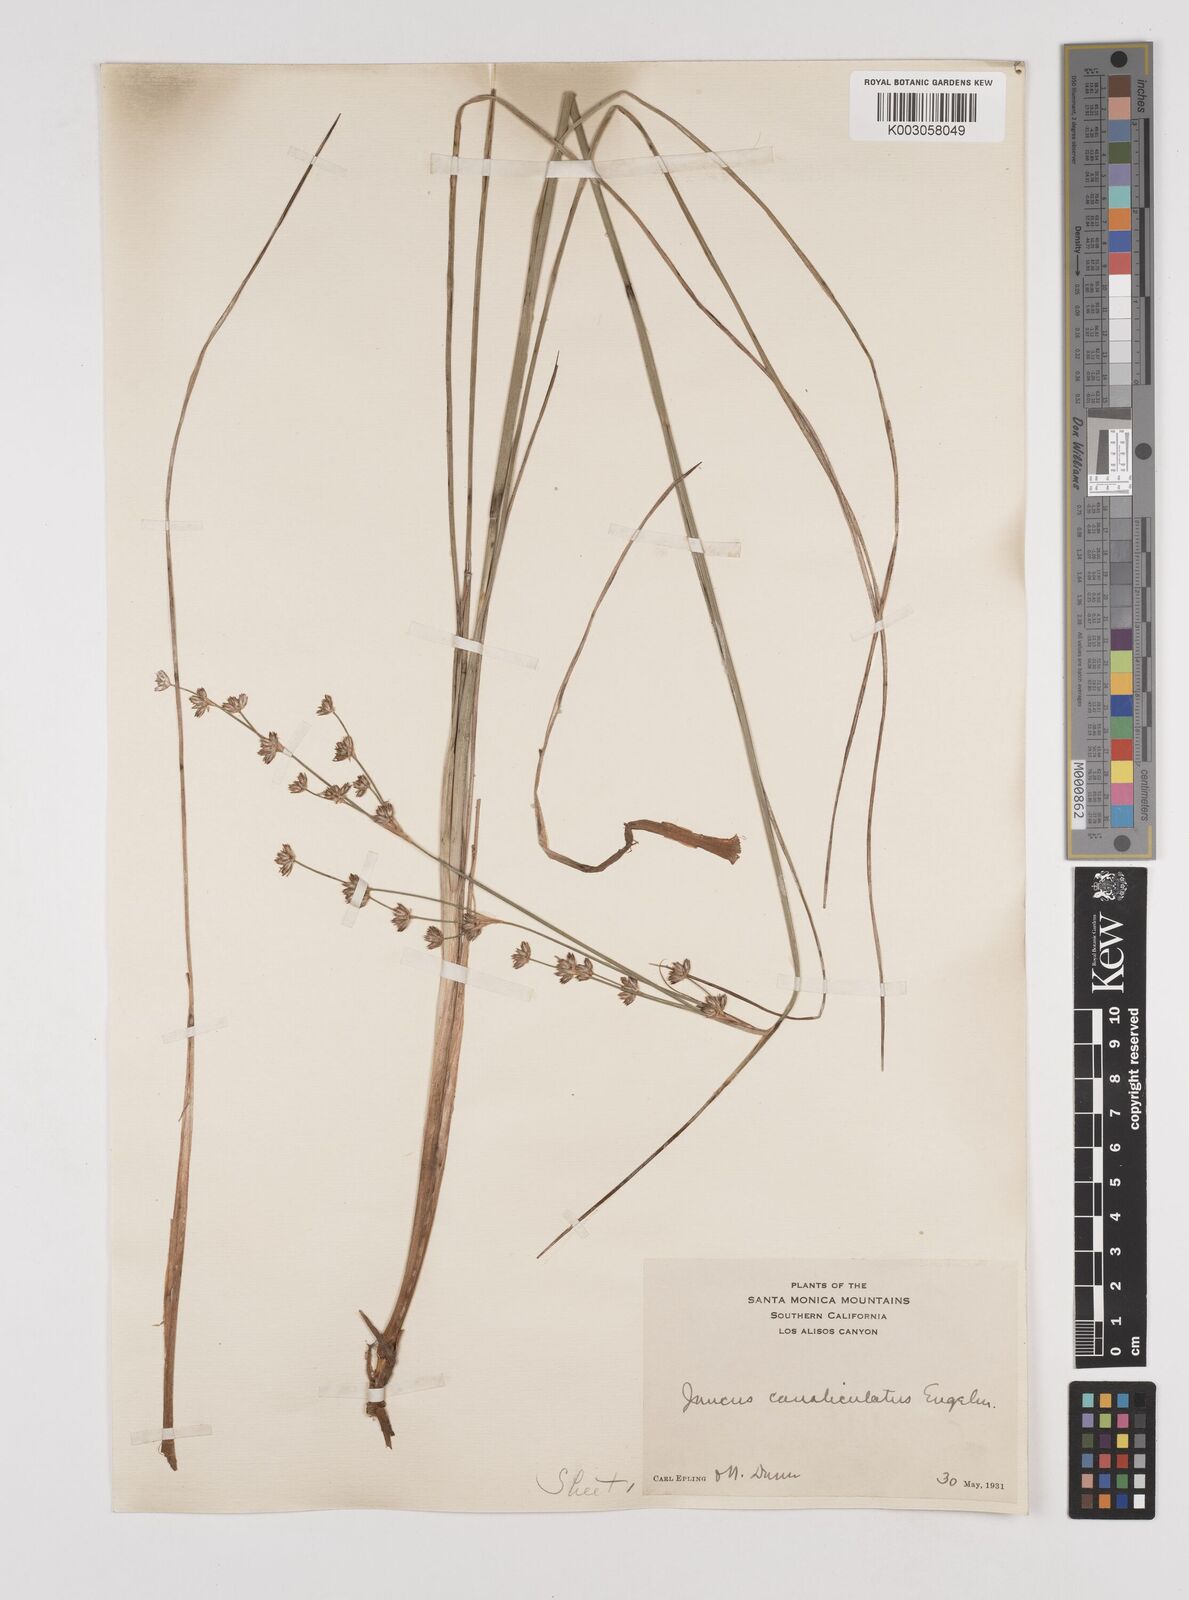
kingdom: Plantae
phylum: Tracheophyta
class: Liliopsida
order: Poales
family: Juncaceae
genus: Juncus
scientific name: Juncus macrophyllus
